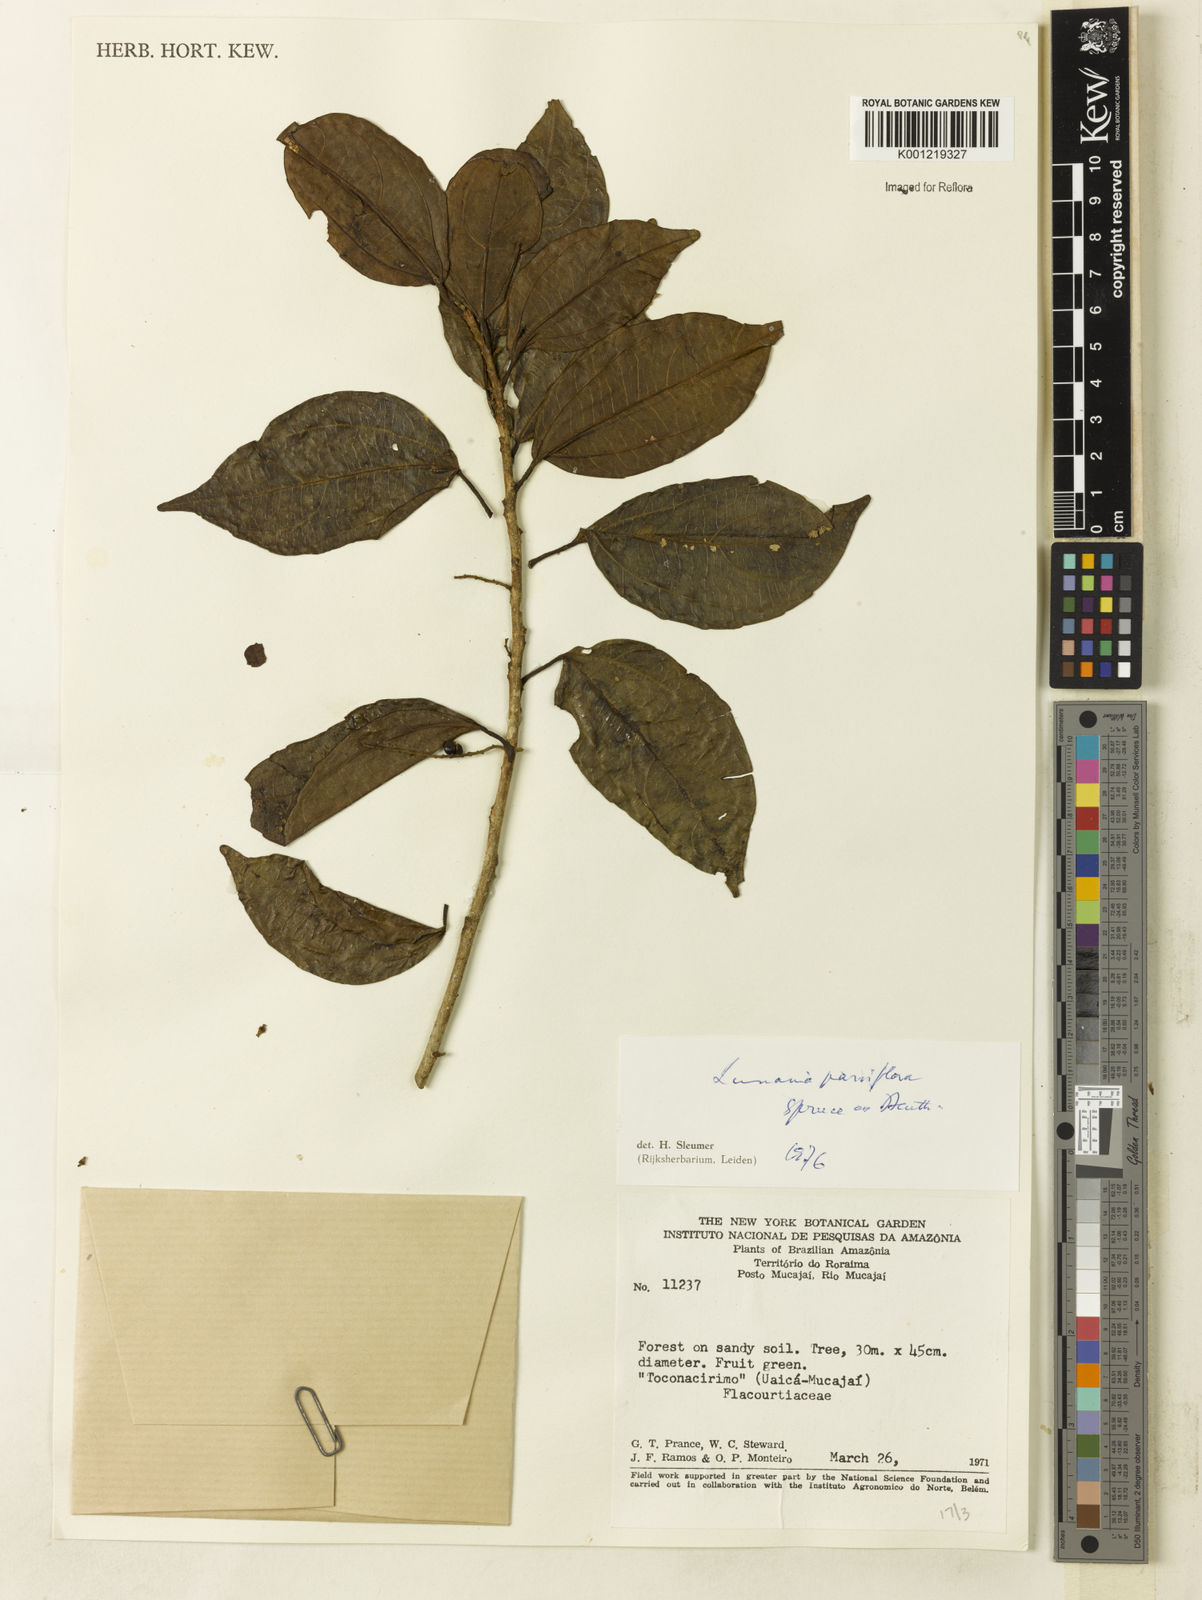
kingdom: Plantae
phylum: Tracheophyta
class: Magnoliopsida
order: Malpighiales
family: Salicaceae
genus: Lunania
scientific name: Lunania parviflora
